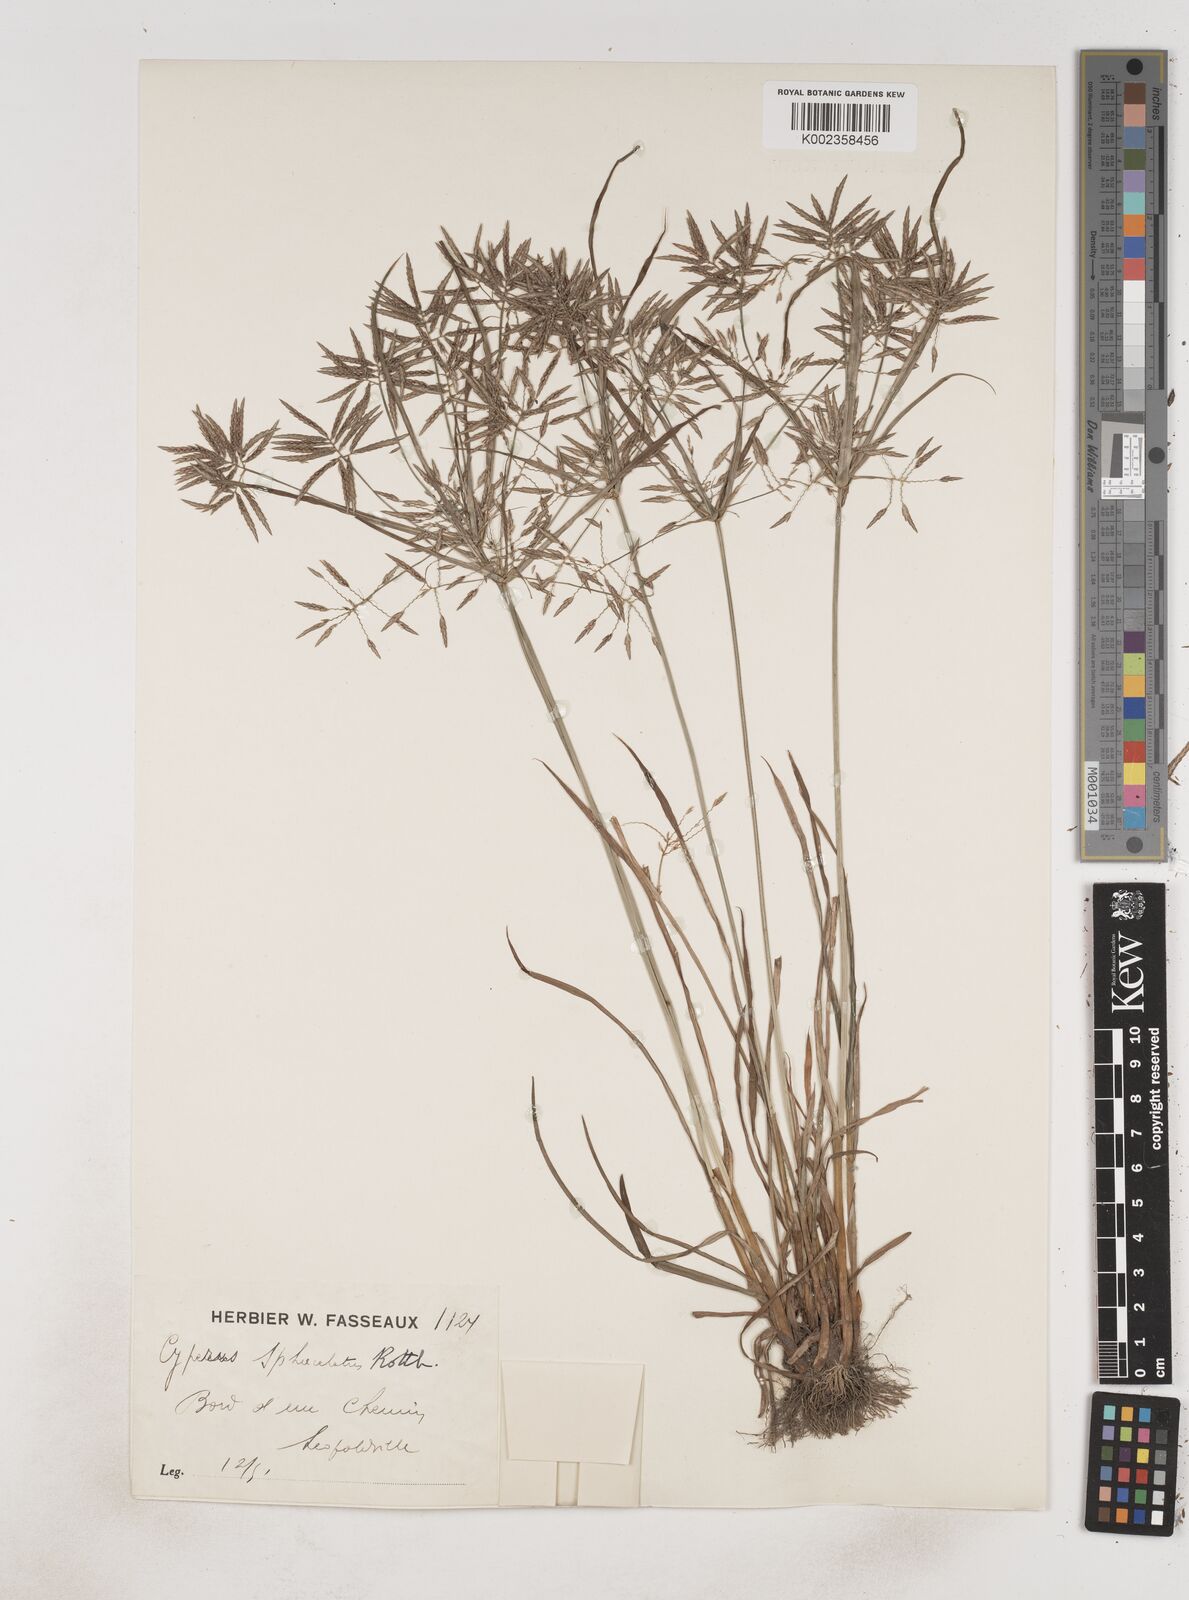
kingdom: Plantae
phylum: Tracheophyta
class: Liliopsida
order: Poales
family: Cyperaceae
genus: Cyperus
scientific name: Cyperus sphacelatus
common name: Roadside flatsedge
